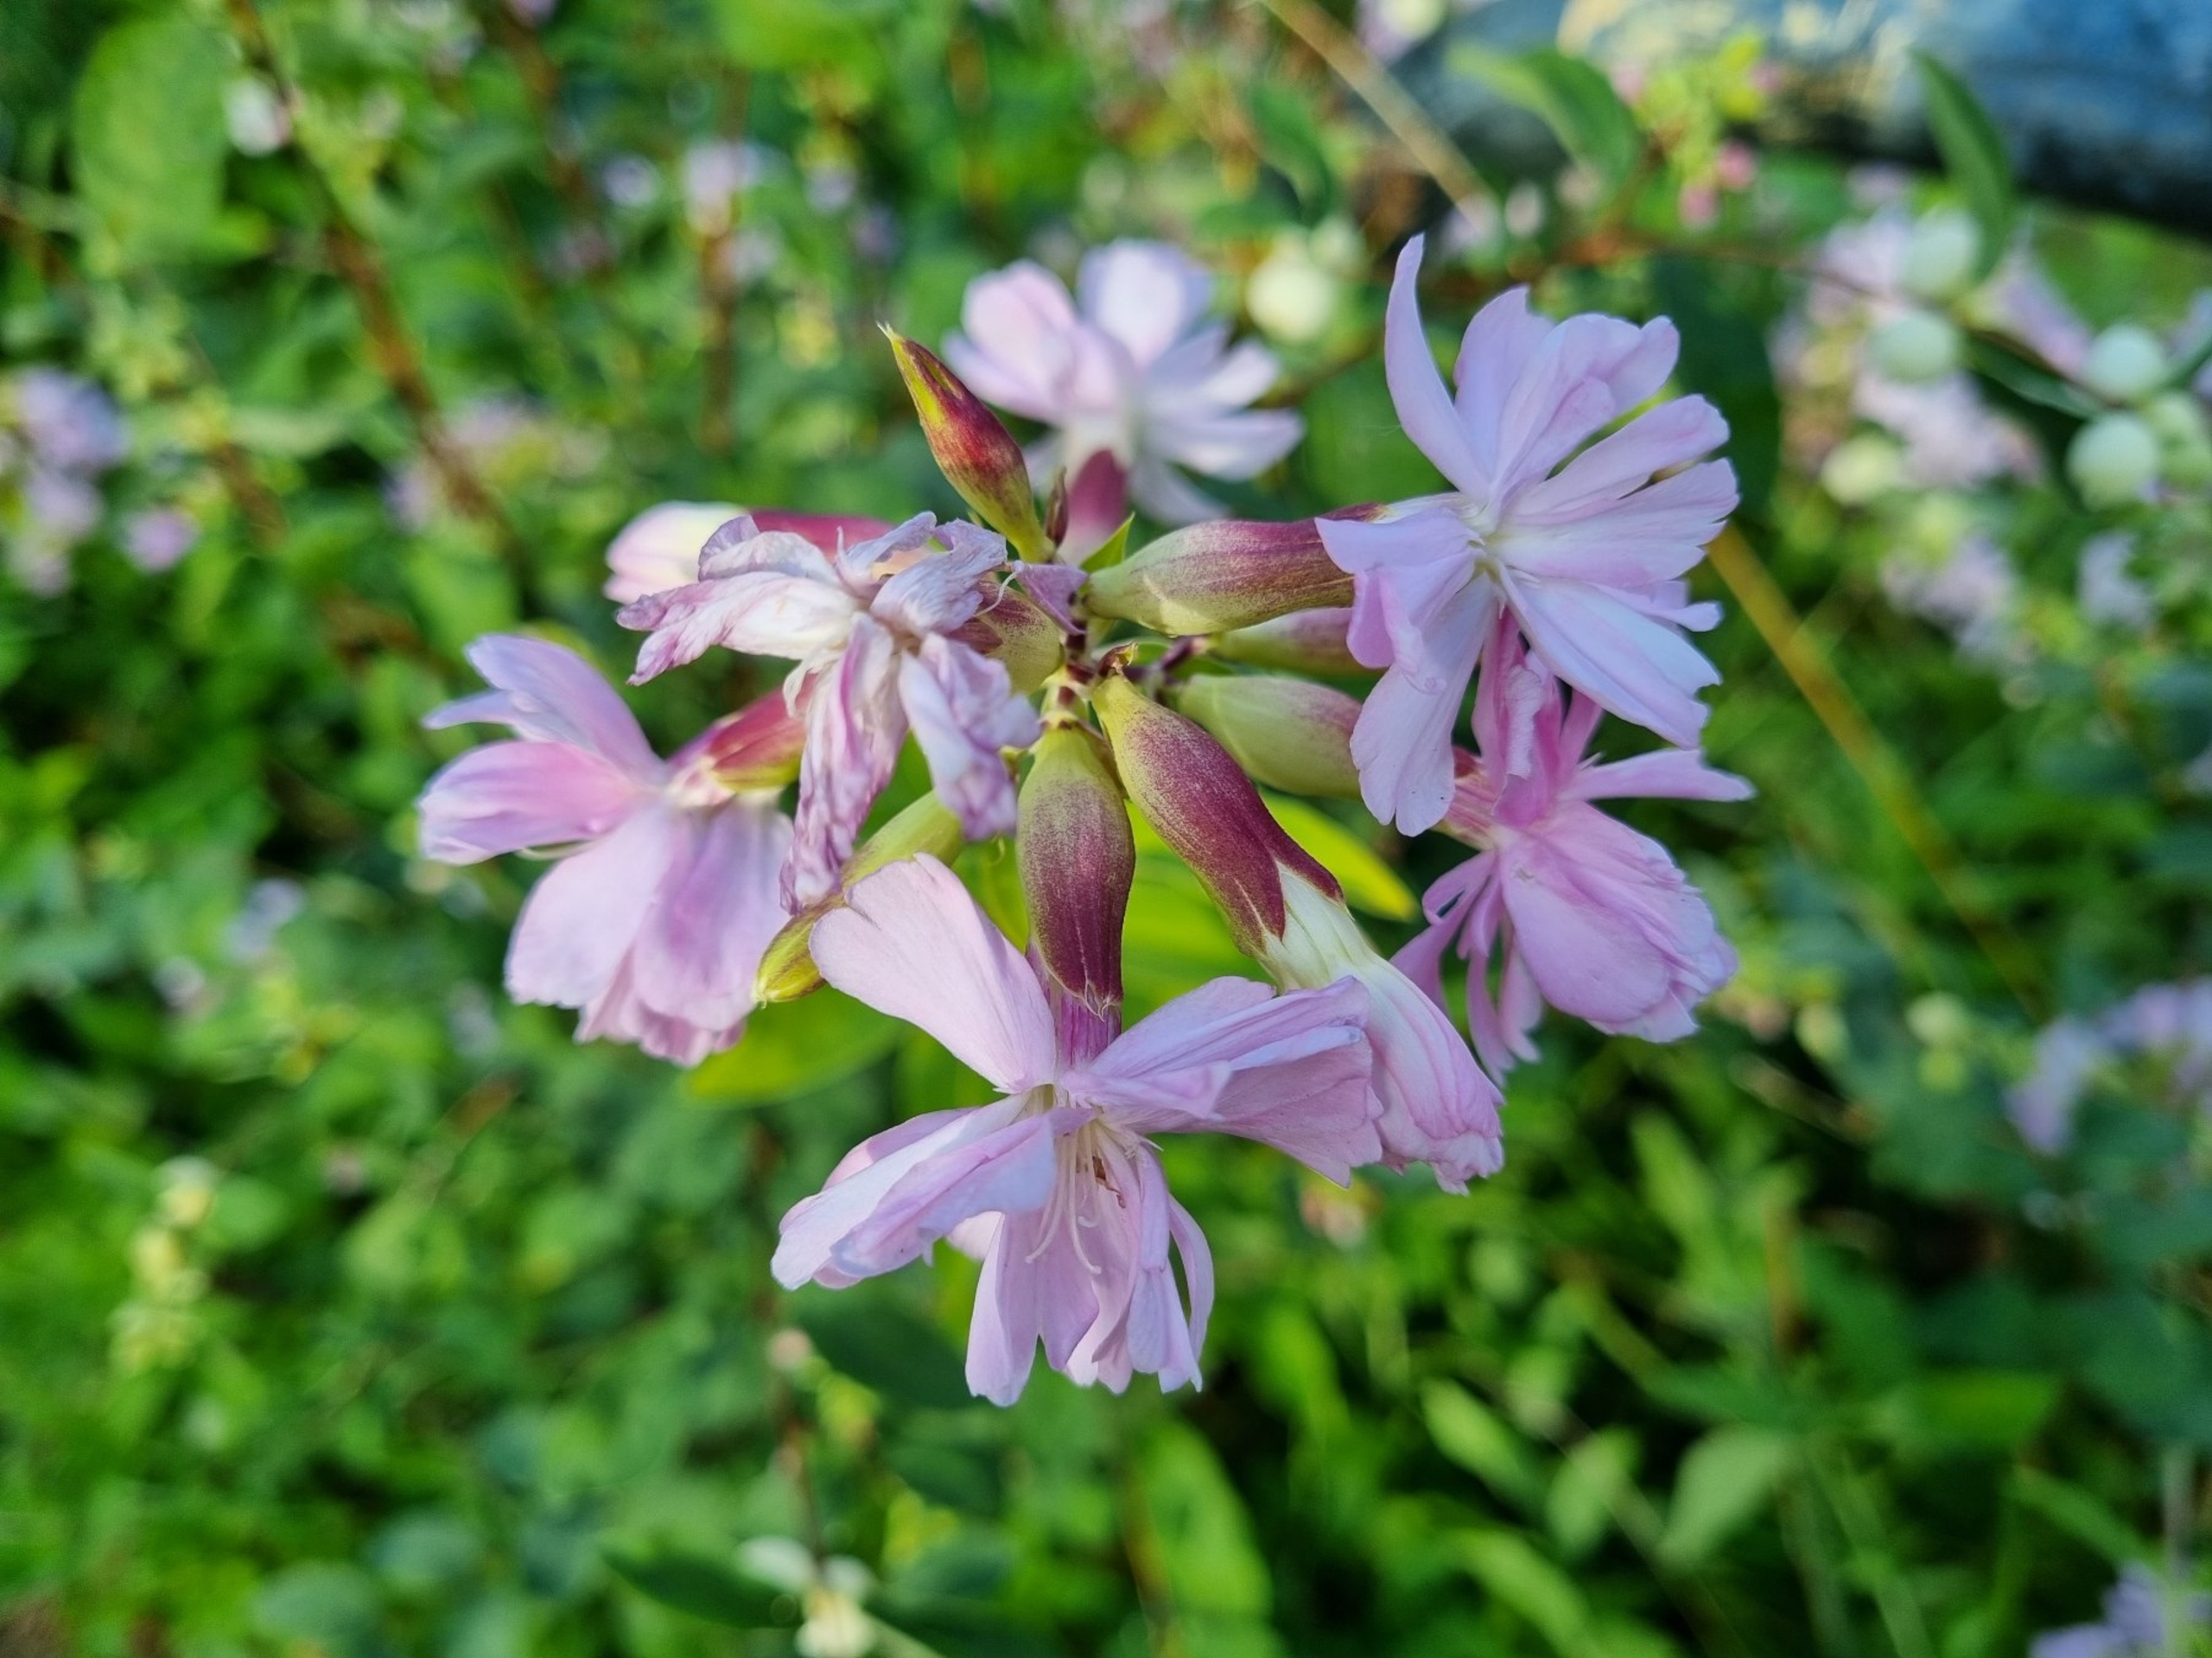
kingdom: Plantae
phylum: Tracheophyta
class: Magnoliopsida
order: Caryophyllales
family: Caryophyllaceae
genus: Saponaria
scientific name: Saponaria officinalis
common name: Sæbeurt
